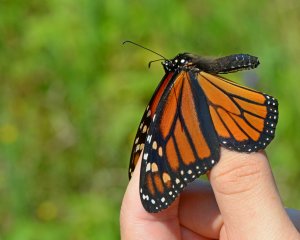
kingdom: Animalia
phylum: Arthropoda
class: Insecta
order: Lepidoptera
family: Nymphalidae
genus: Danaus
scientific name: Danaus plexippus
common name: Monarch
